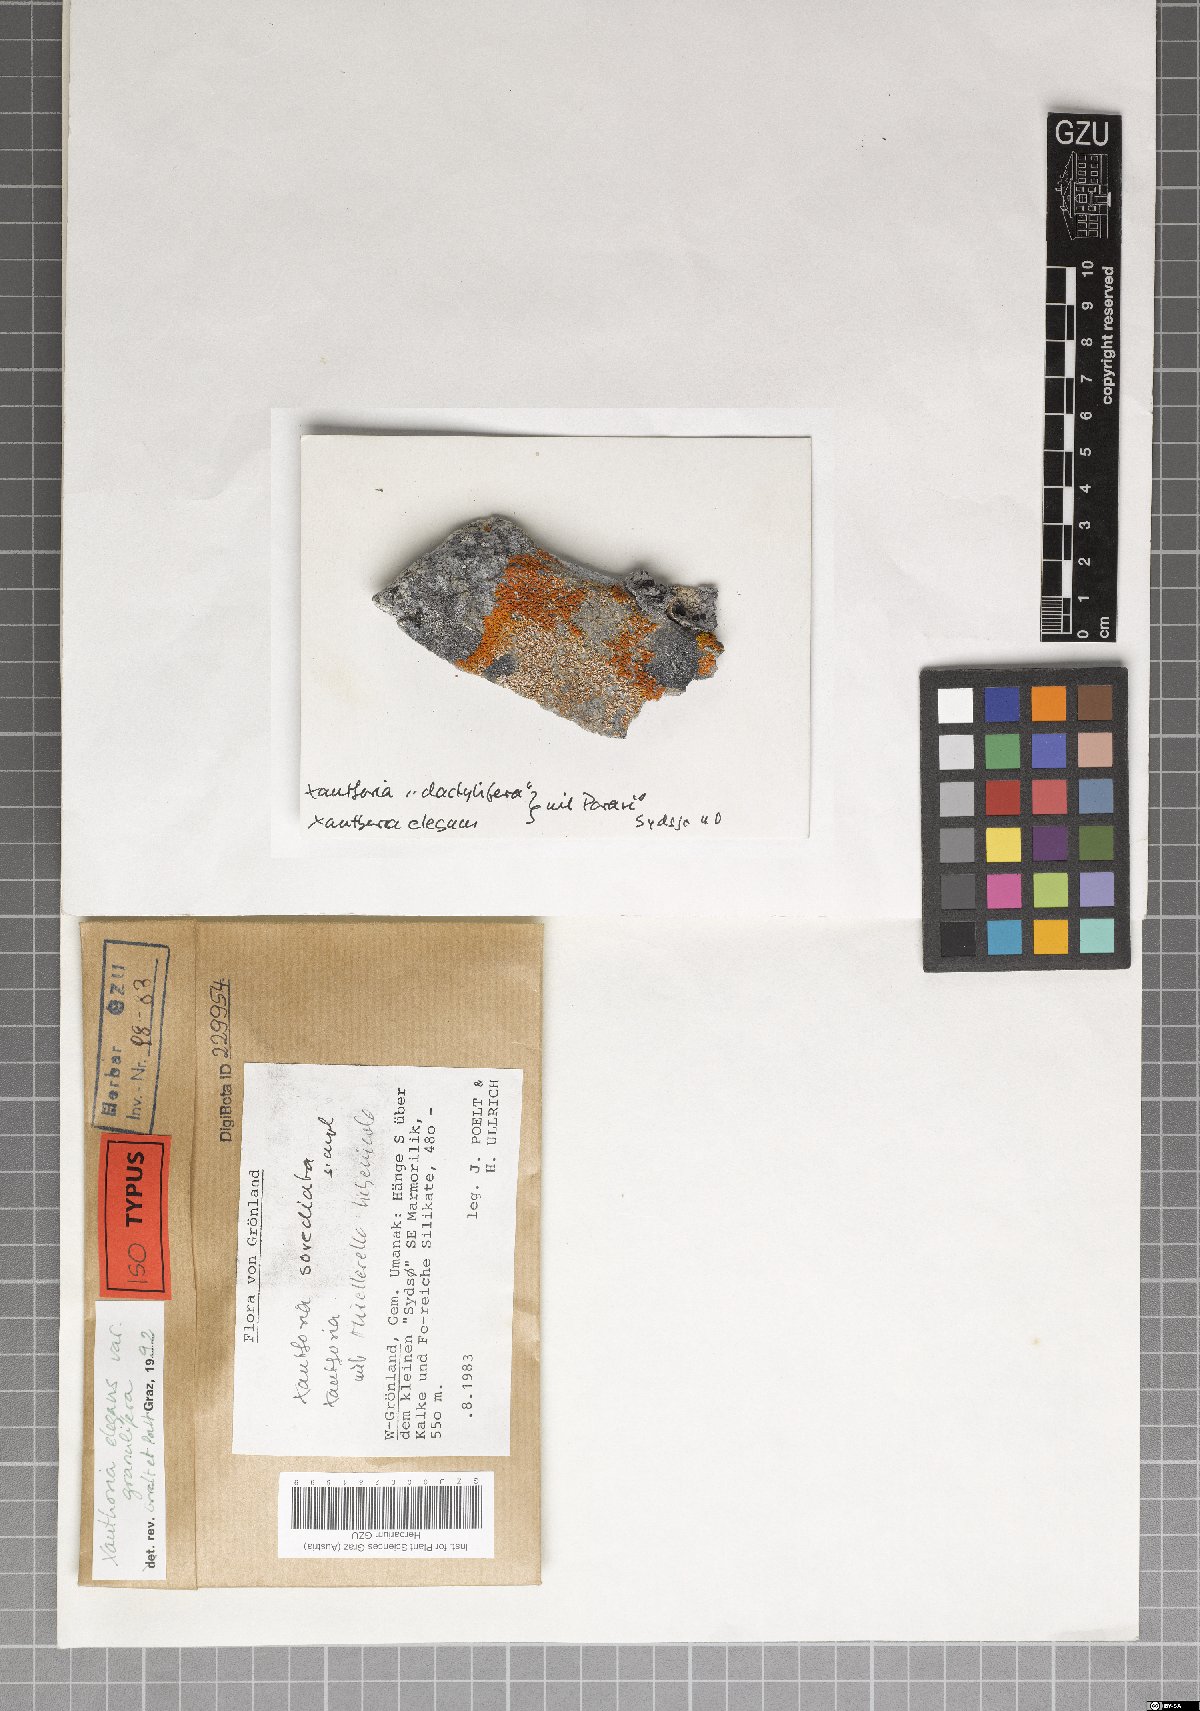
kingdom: Fungi
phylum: Ascomycota
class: Lecanoromycetes
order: Teloschistales
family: Teloschistaceae
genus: Rusavskia
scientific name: Rusavskia granulifera
